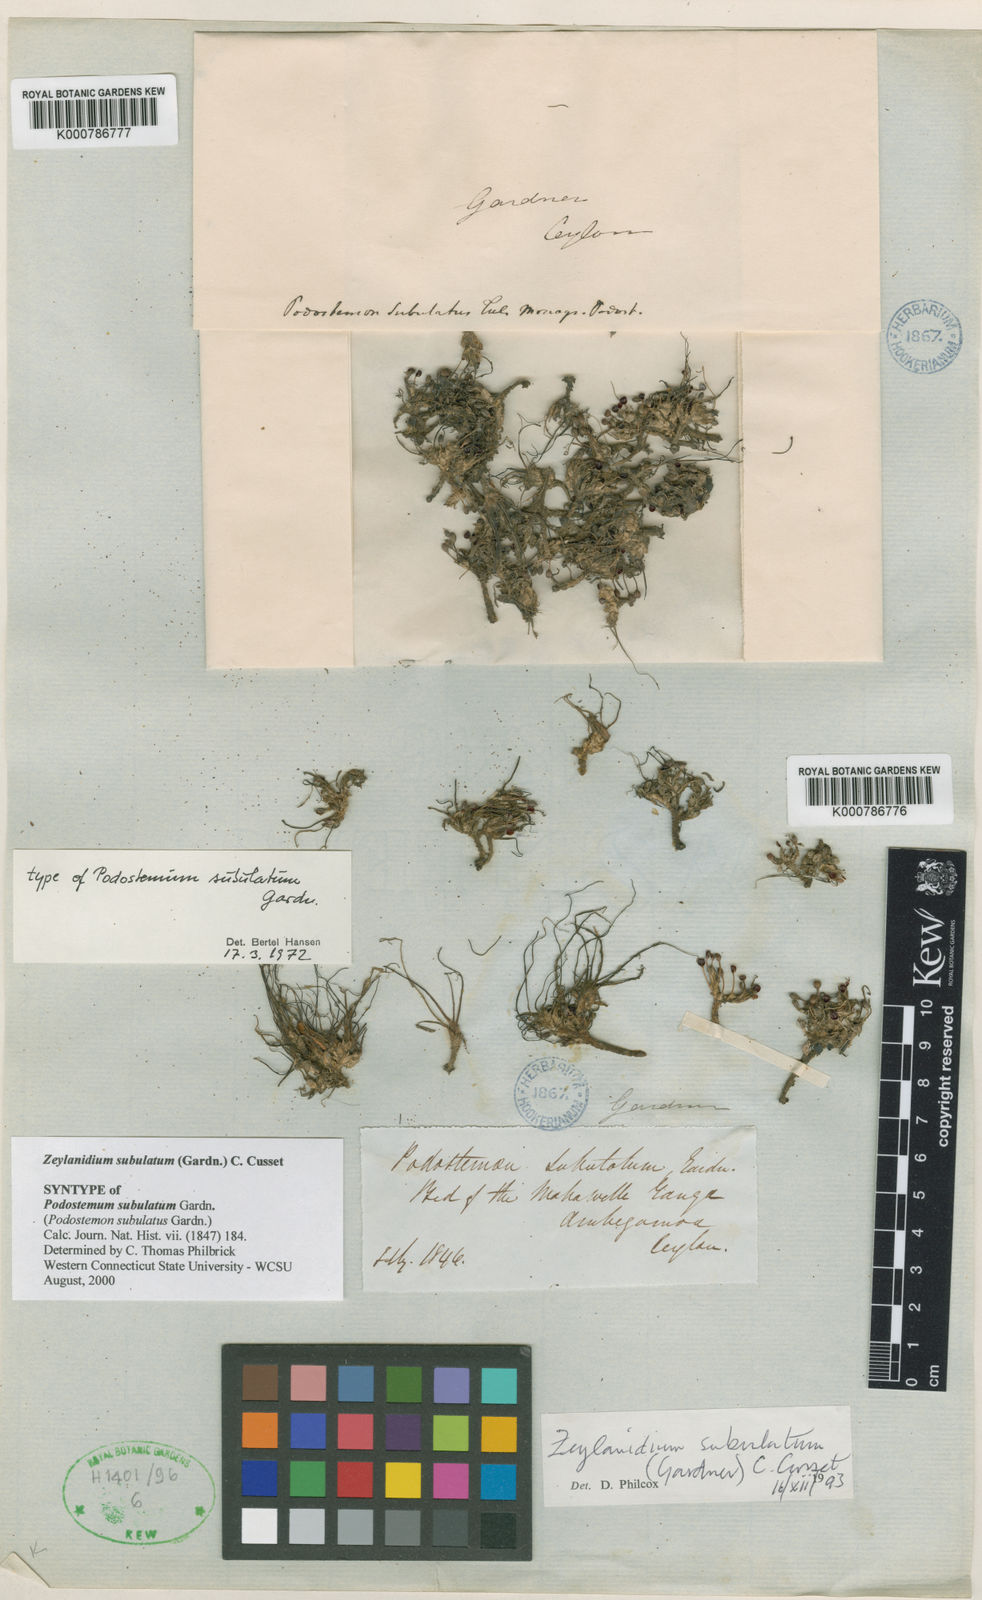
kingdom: Plantae
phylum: Tracheophyta
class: Magnoliopsida
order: Malpighiales
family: Podostemaceae
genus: Podostemum
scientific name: Podostemum
